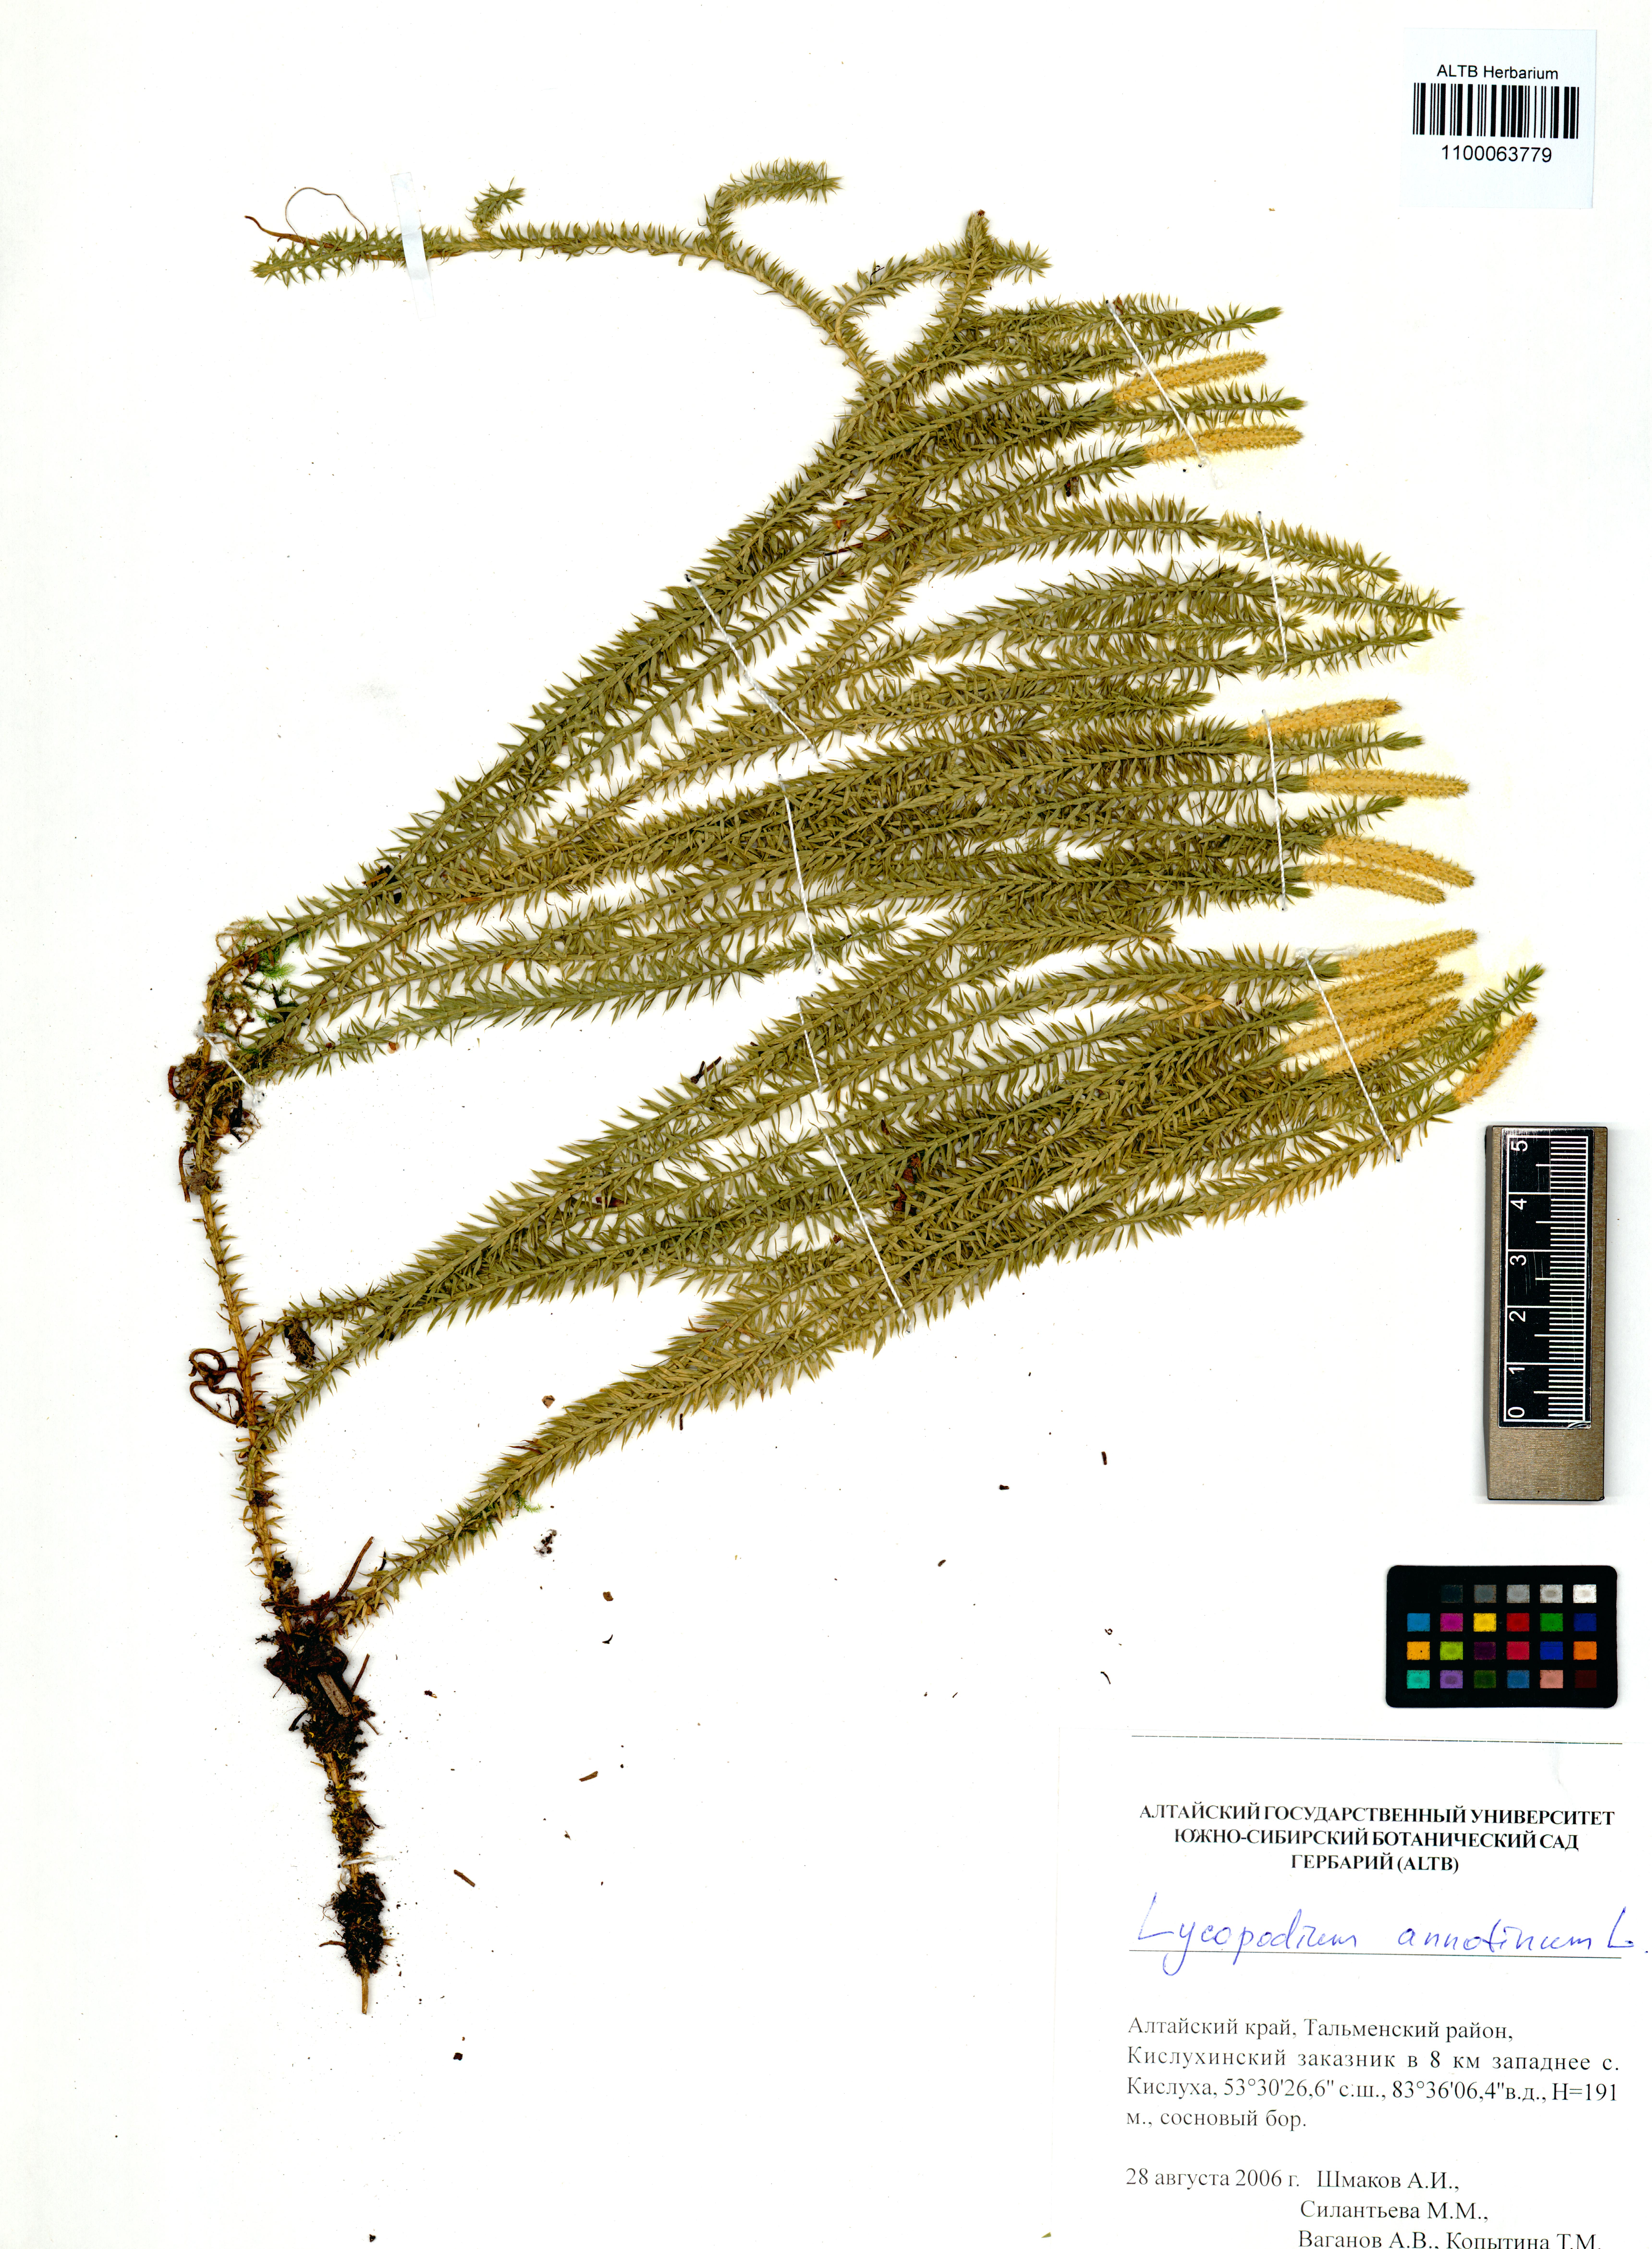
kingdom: Plantae
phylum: Tracheophyta
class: Lycopodiopsida
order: Lycopodiales
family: Lycopodiaceae
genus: Spinulum
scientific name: Spinulum annotinum
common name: Interrupted club-moss
